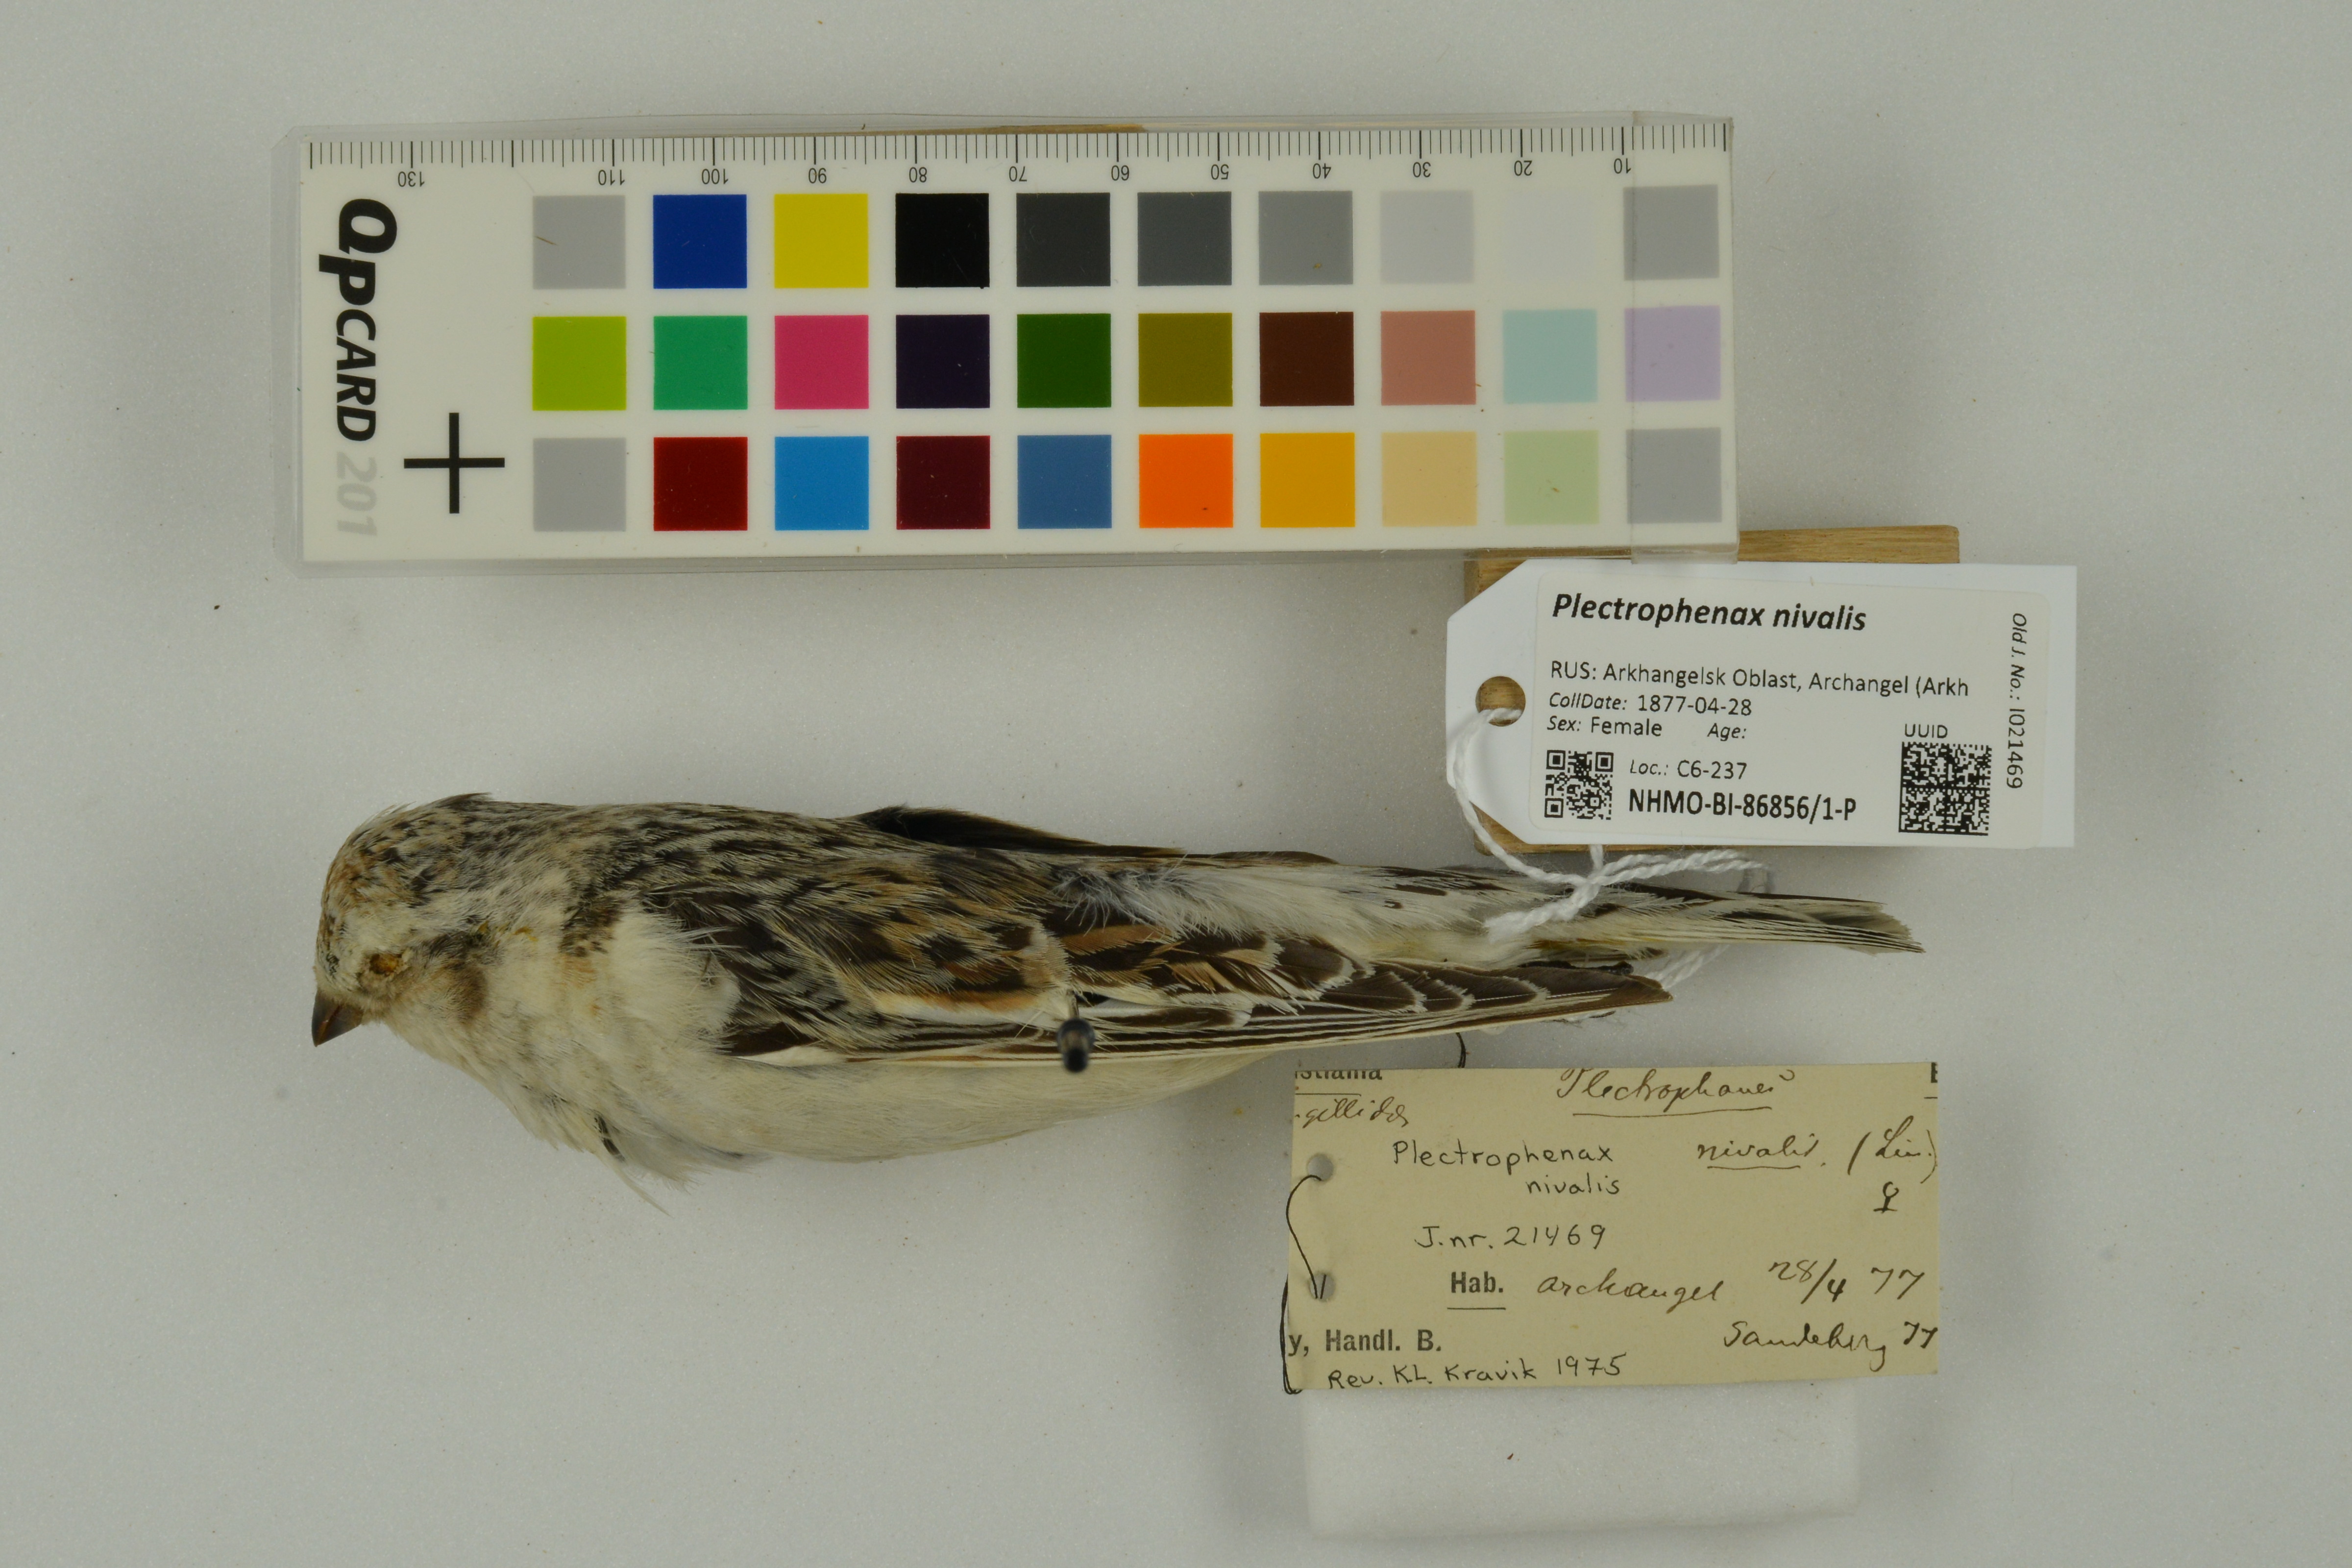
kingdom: Animalia
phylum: Chordata
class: Aves
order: Passeriformes
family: Calcariidae
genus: Plectrophenax
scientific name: Plectrophenax nivalis
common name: Snow bunting
